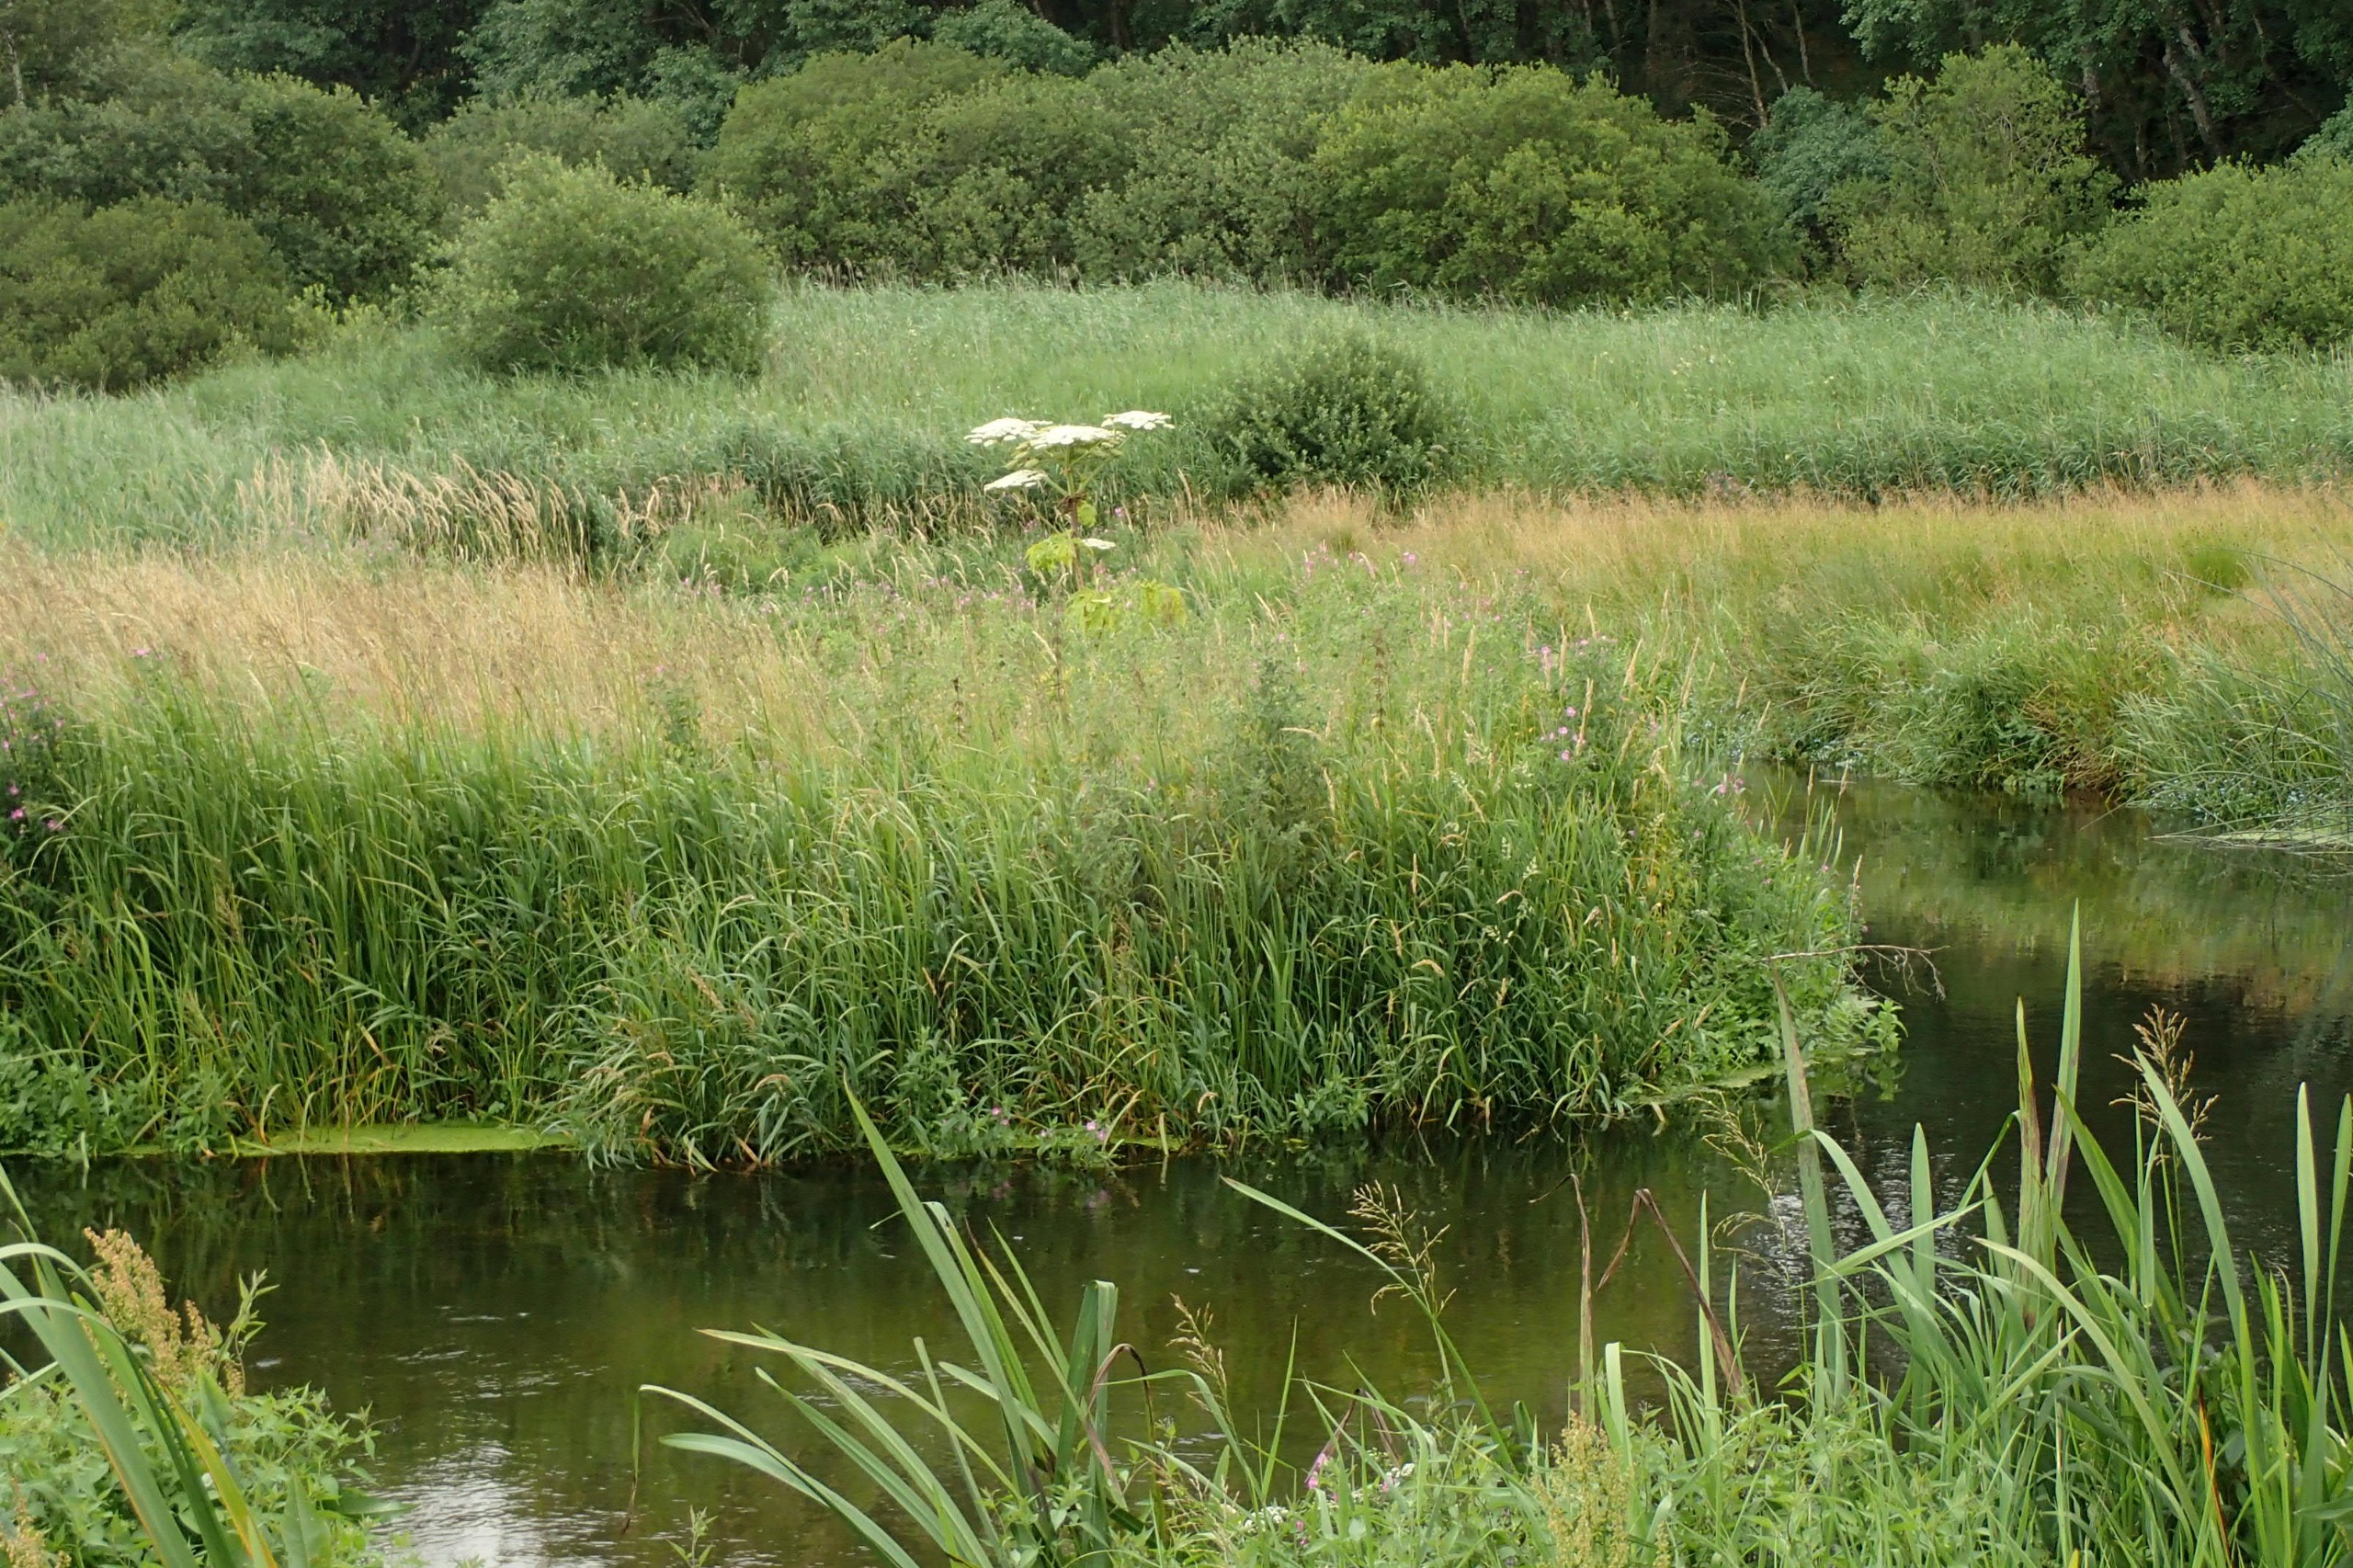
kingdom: Plantae
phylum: Tracheophyta
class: Magnoliopsida
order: Apiales
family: Apiaceae
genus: Heracleum
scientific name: Heracleum mantegazzianum
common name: Kæmpe-bjørneklo
